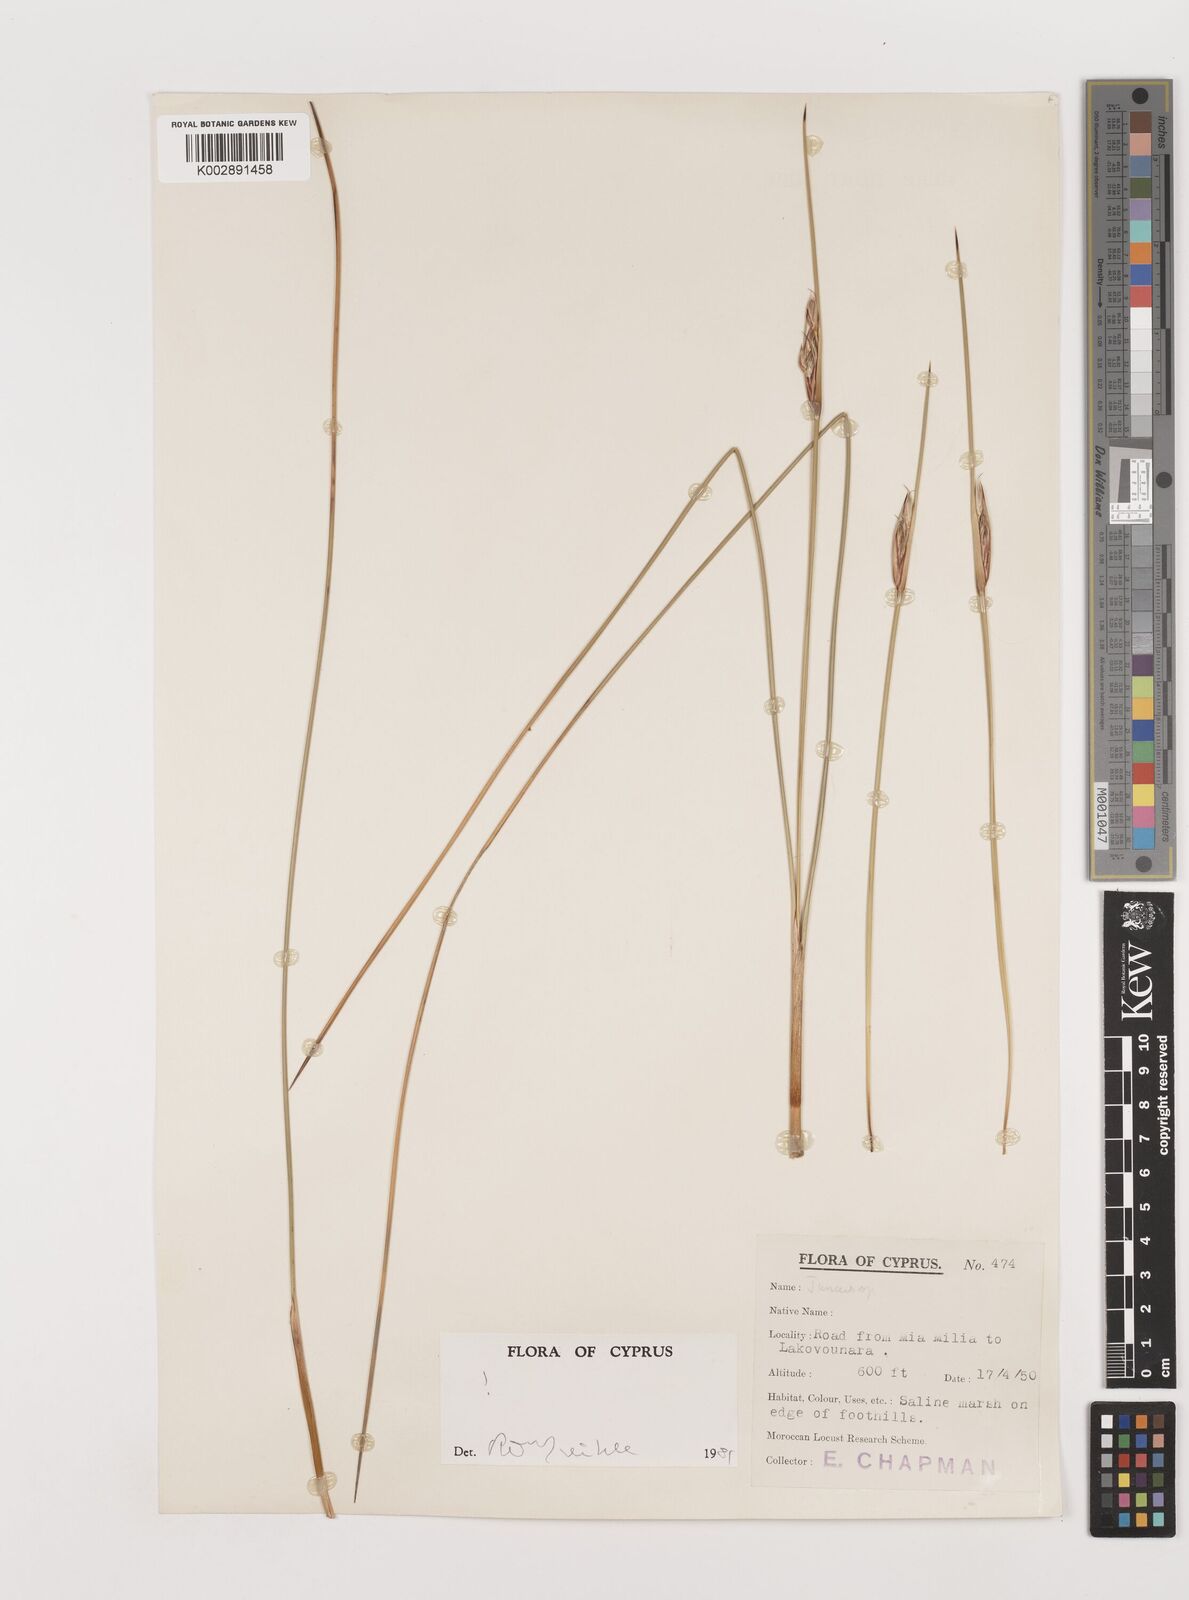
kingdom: Plantae
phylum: Tracheophyta
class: Liliopsida
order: Poales
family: Juncaceae
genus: Juncus
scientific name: Juncus heldreichianus
